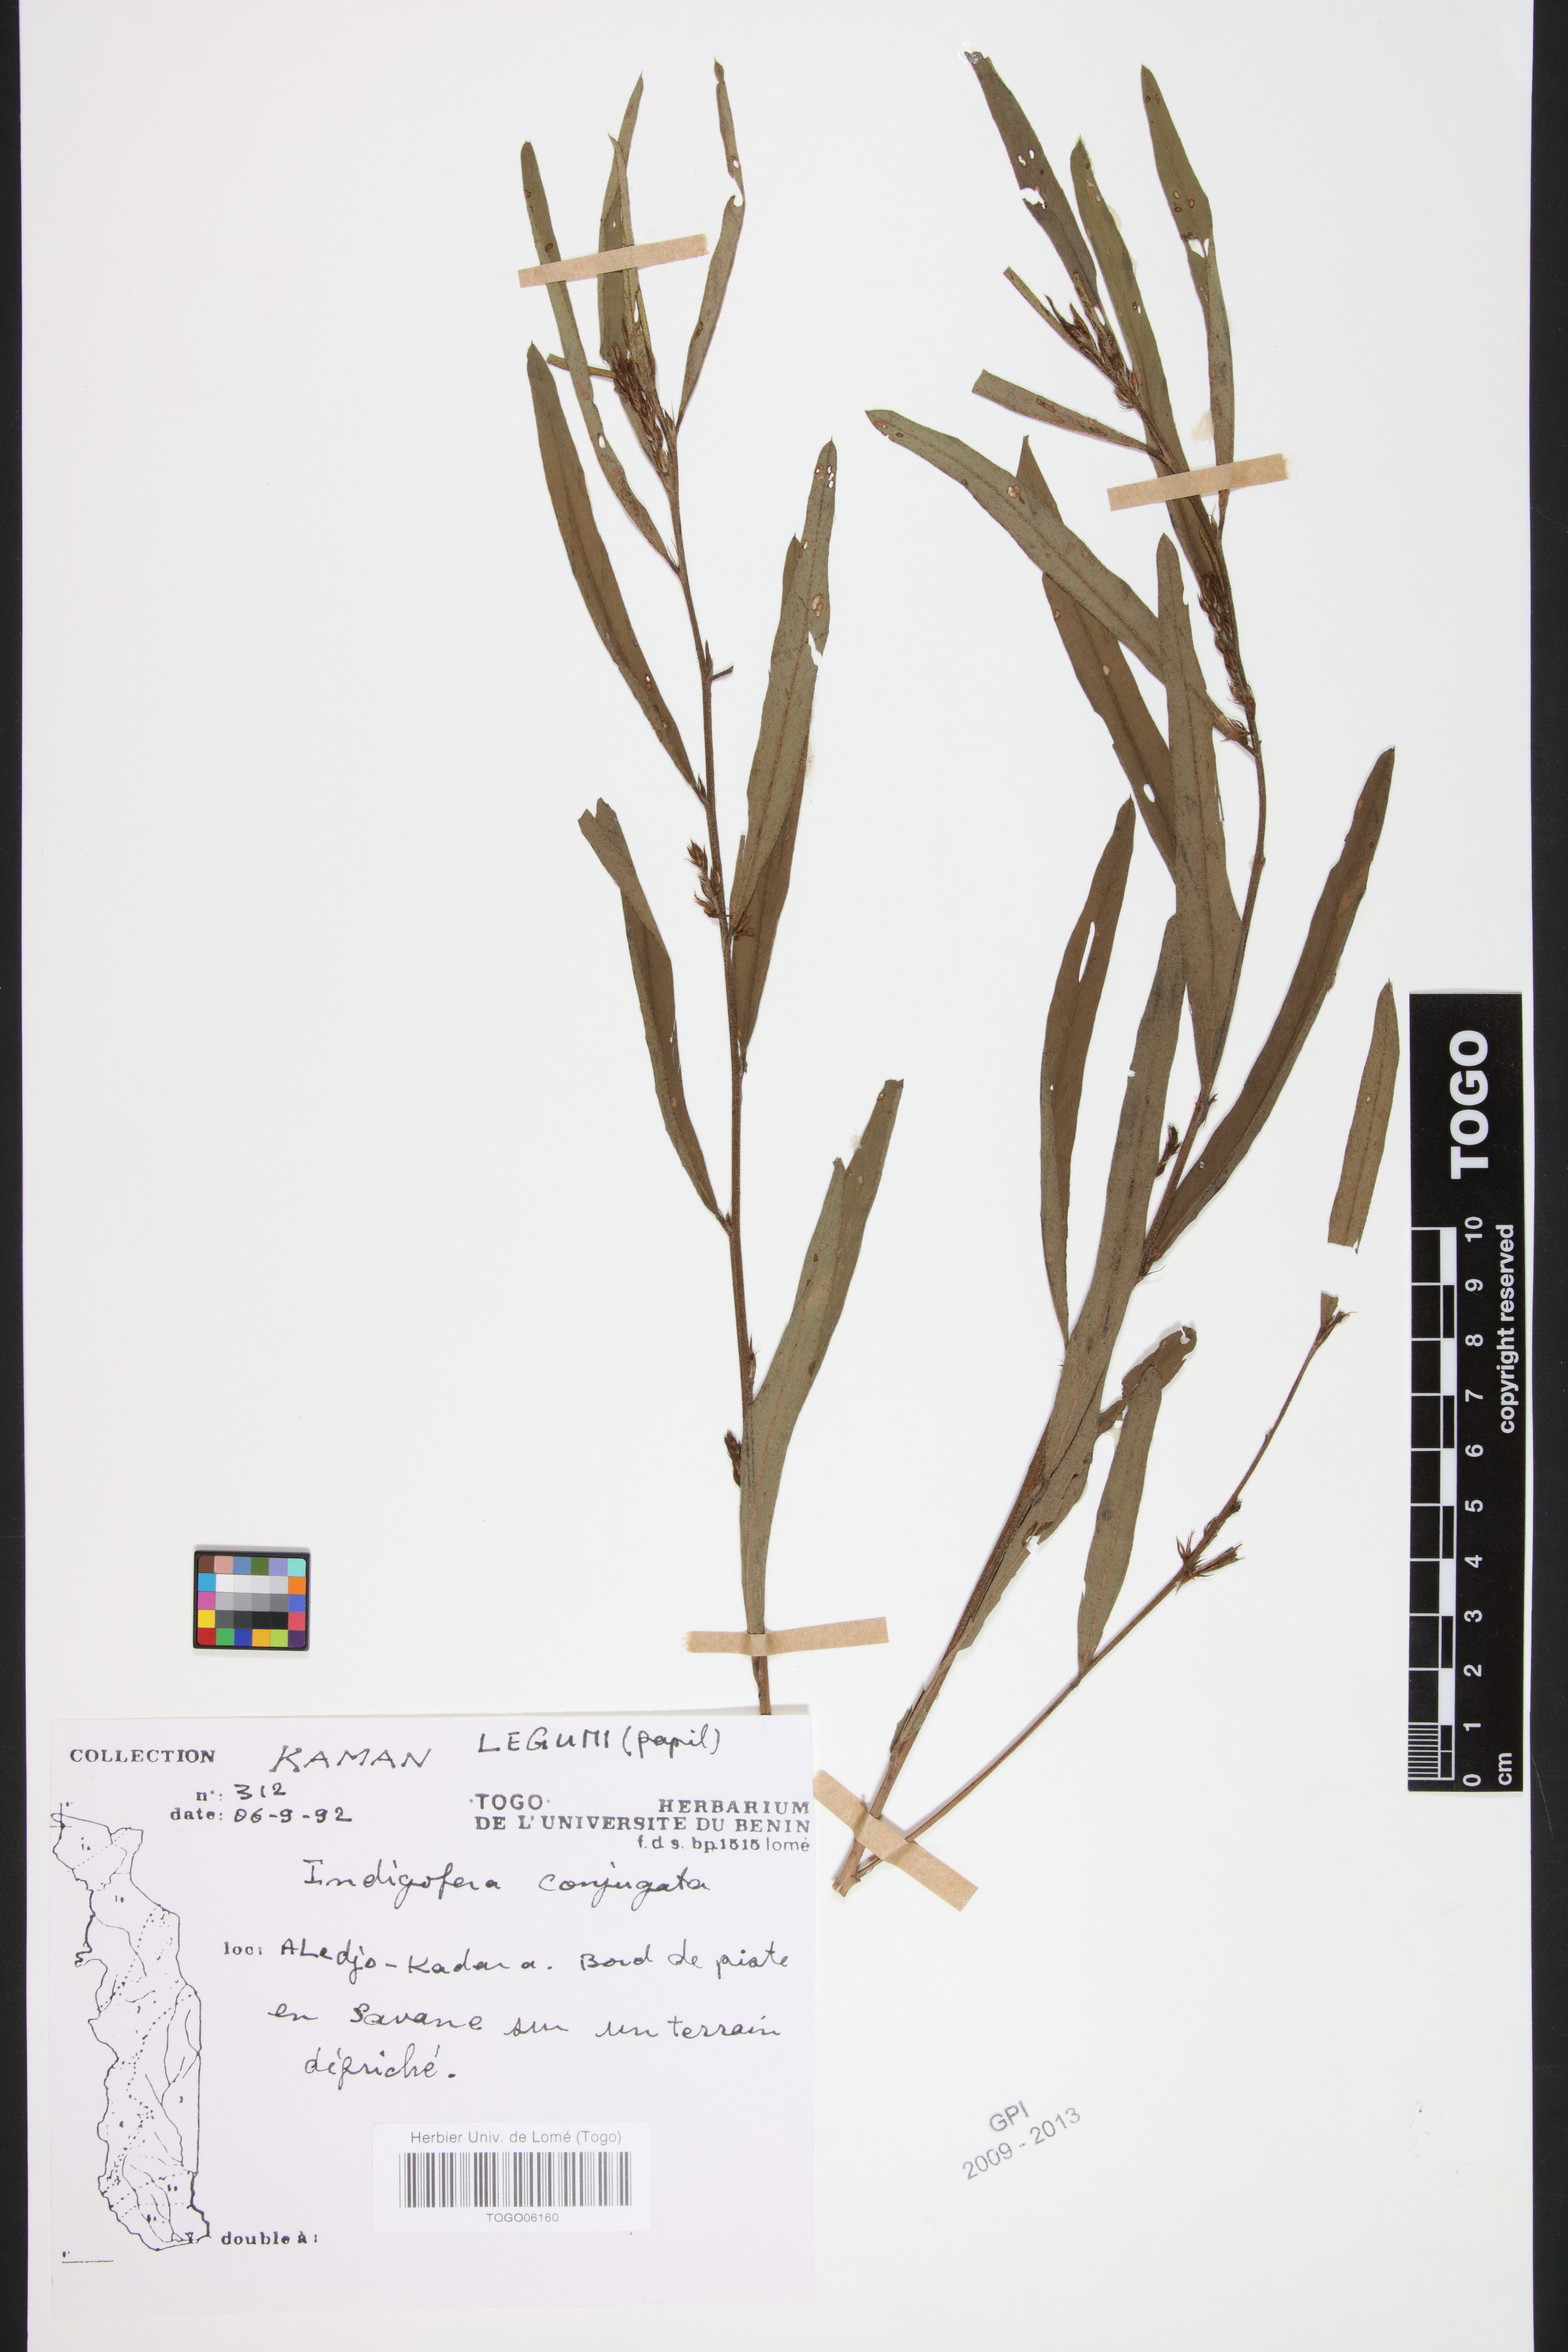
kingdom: Plantae
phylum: Tracheophyta
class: Magnoliopsida
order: Fabales
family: Fabaceae
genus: Indigofera
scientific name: Indigofera conjugata
